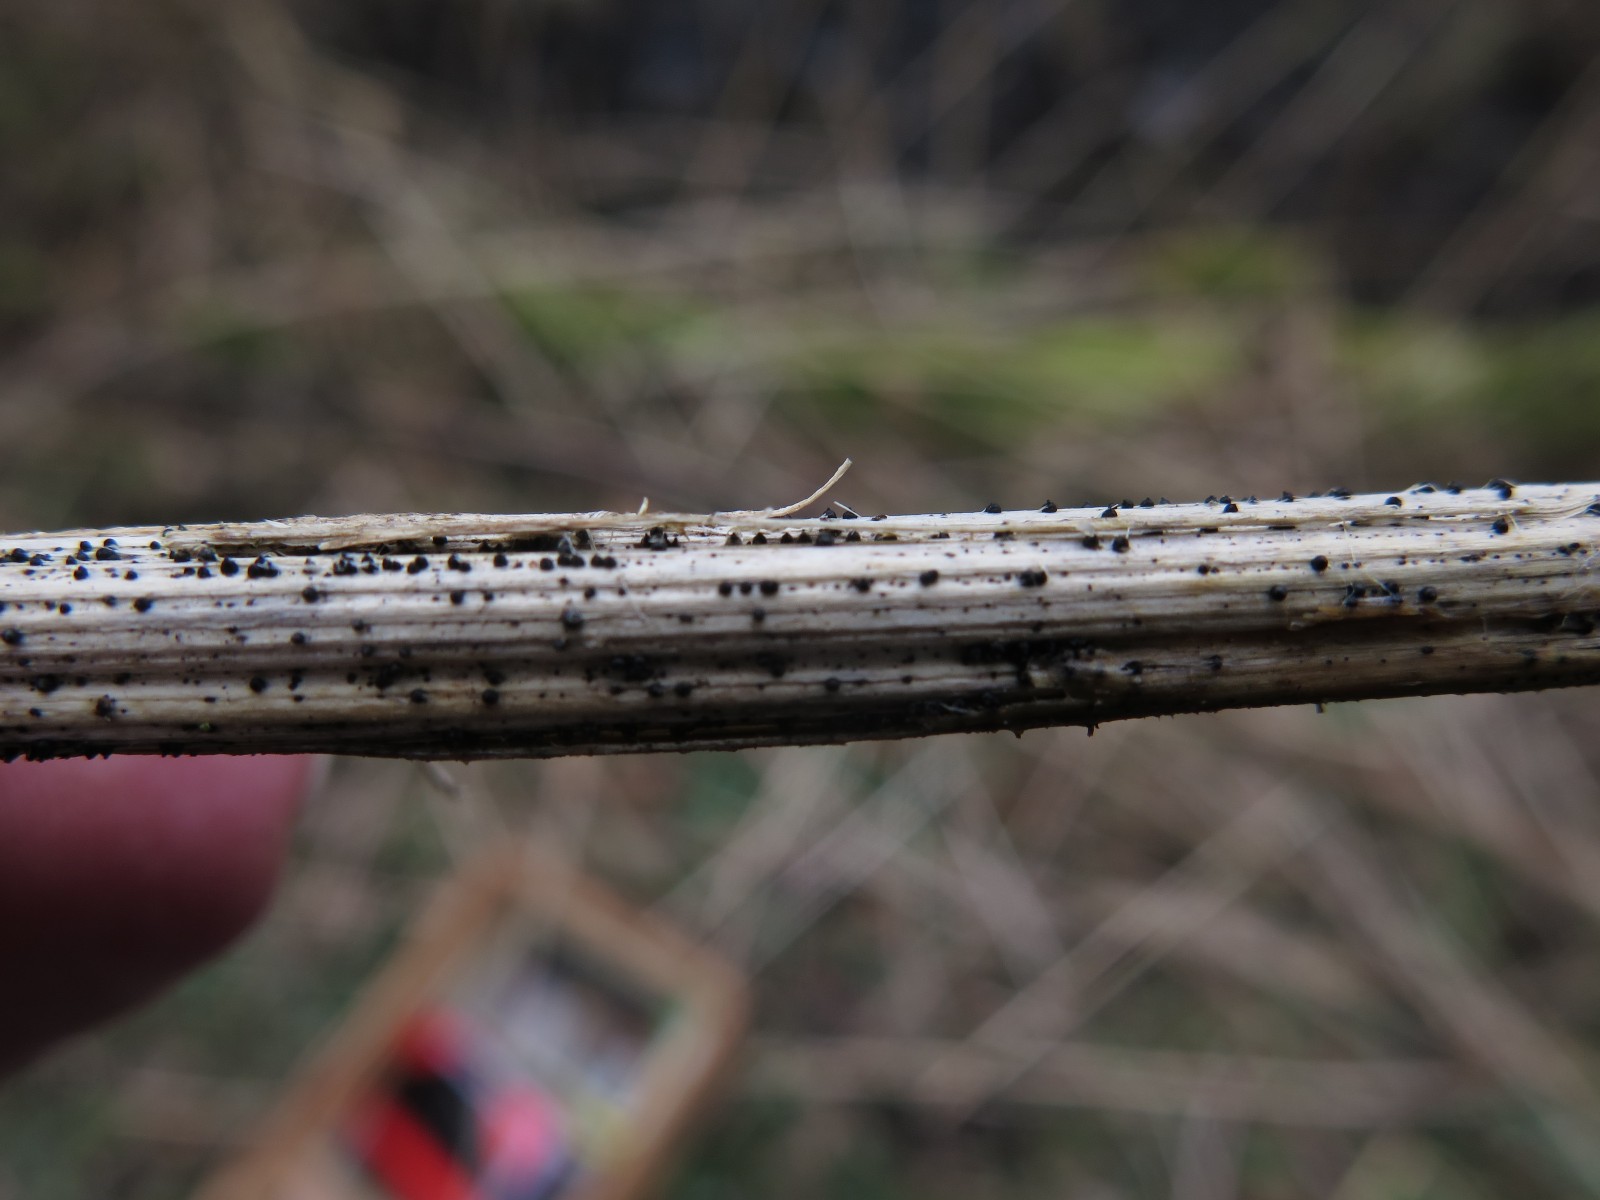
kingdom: Fungi
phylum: Ascomycota
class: Dothideomycetes
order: Pleosporales
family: Leptosphaeriaceae
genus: Leptosphaeria
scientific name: Leptosphaeria acuta
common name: spids kulkegle
